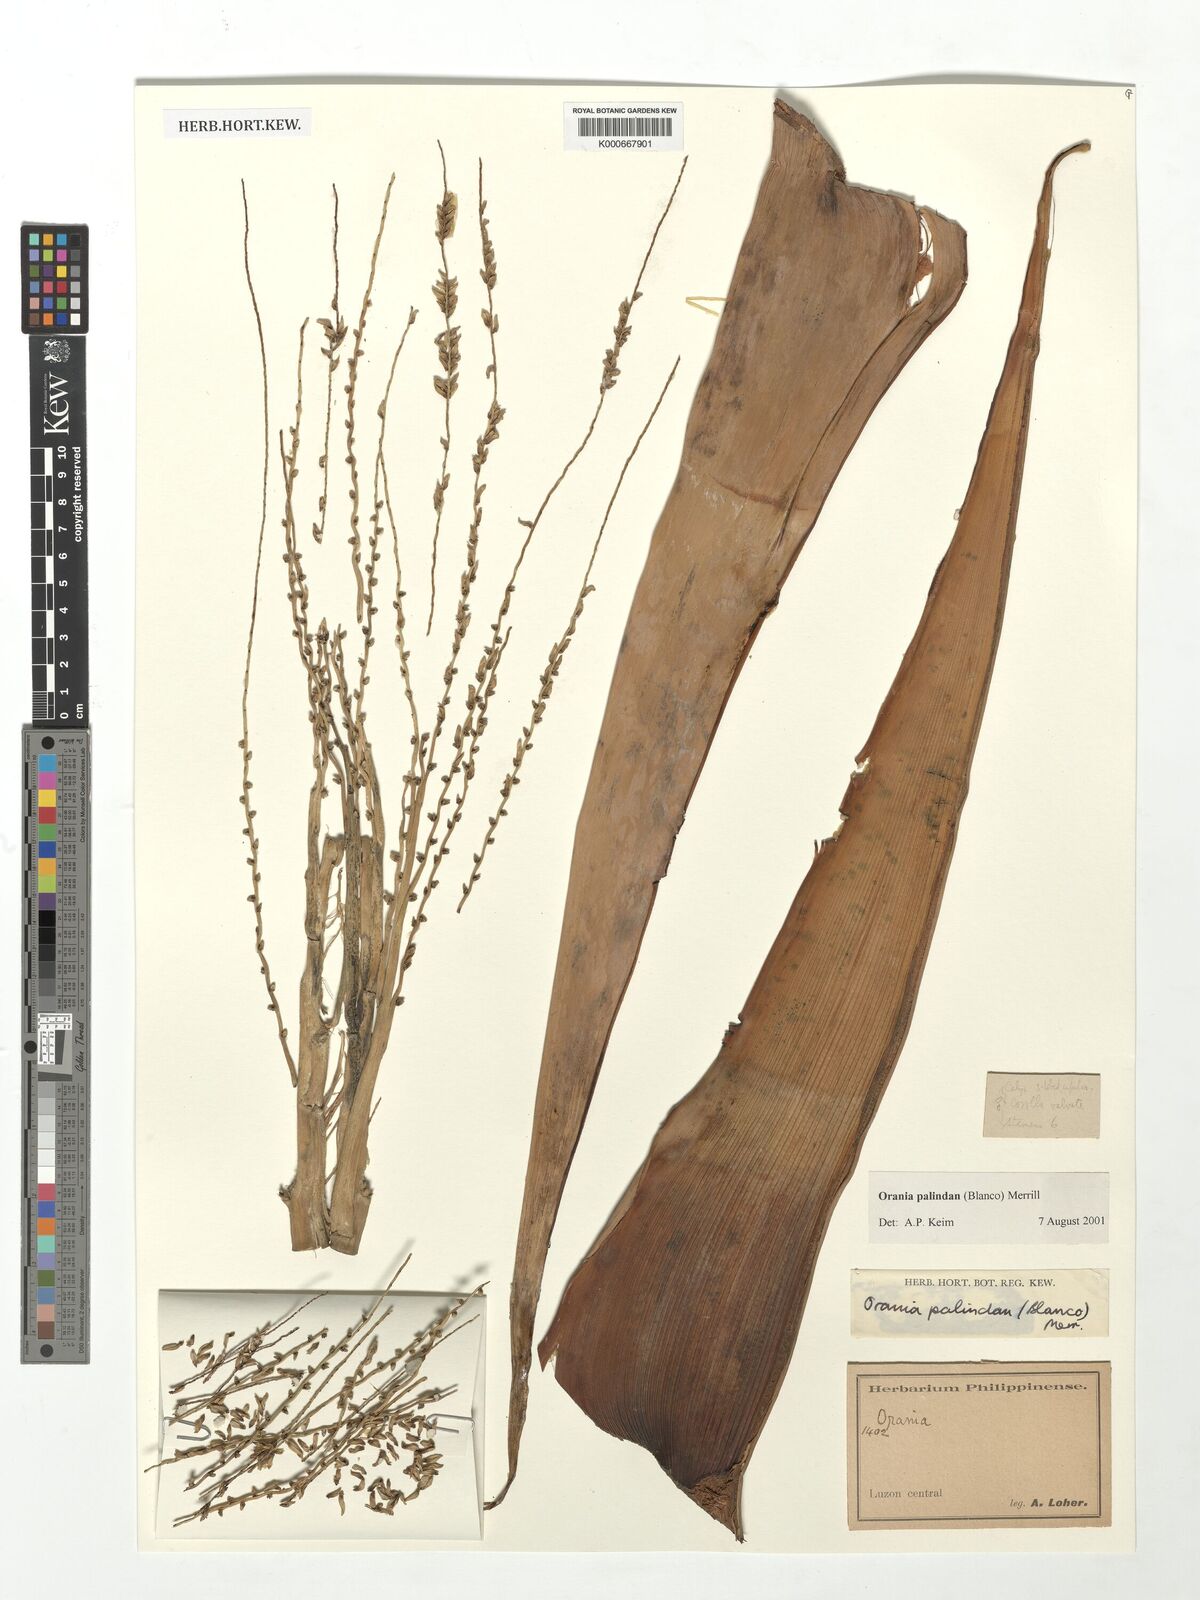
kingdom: Plantae
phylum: Tracheophyta
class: Liliopsida
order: Arecales
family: Arecaceae
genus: Orania
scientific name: Orania palindan
